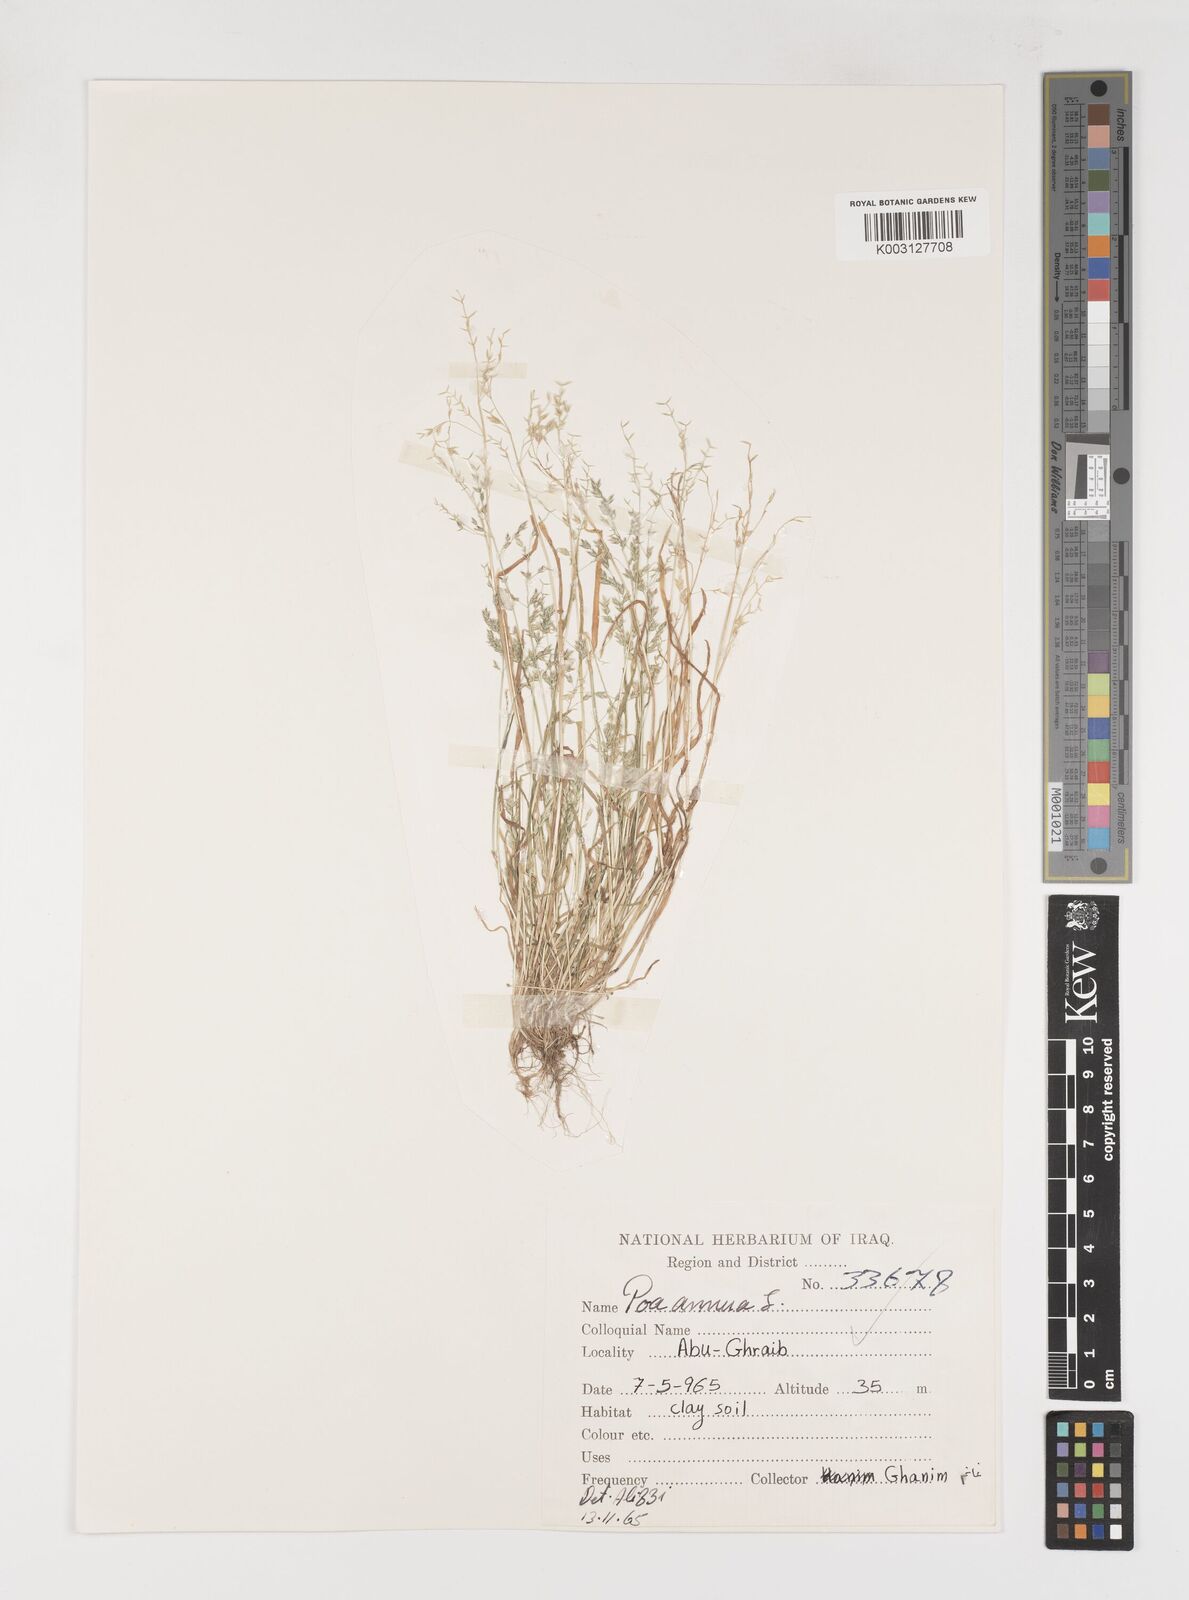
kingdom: Plantae
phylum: Tracheophyta
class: Liliopsida
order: Poales
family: Poaceae
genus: Poa
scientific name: Poa annua
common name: Annual bluegrass
